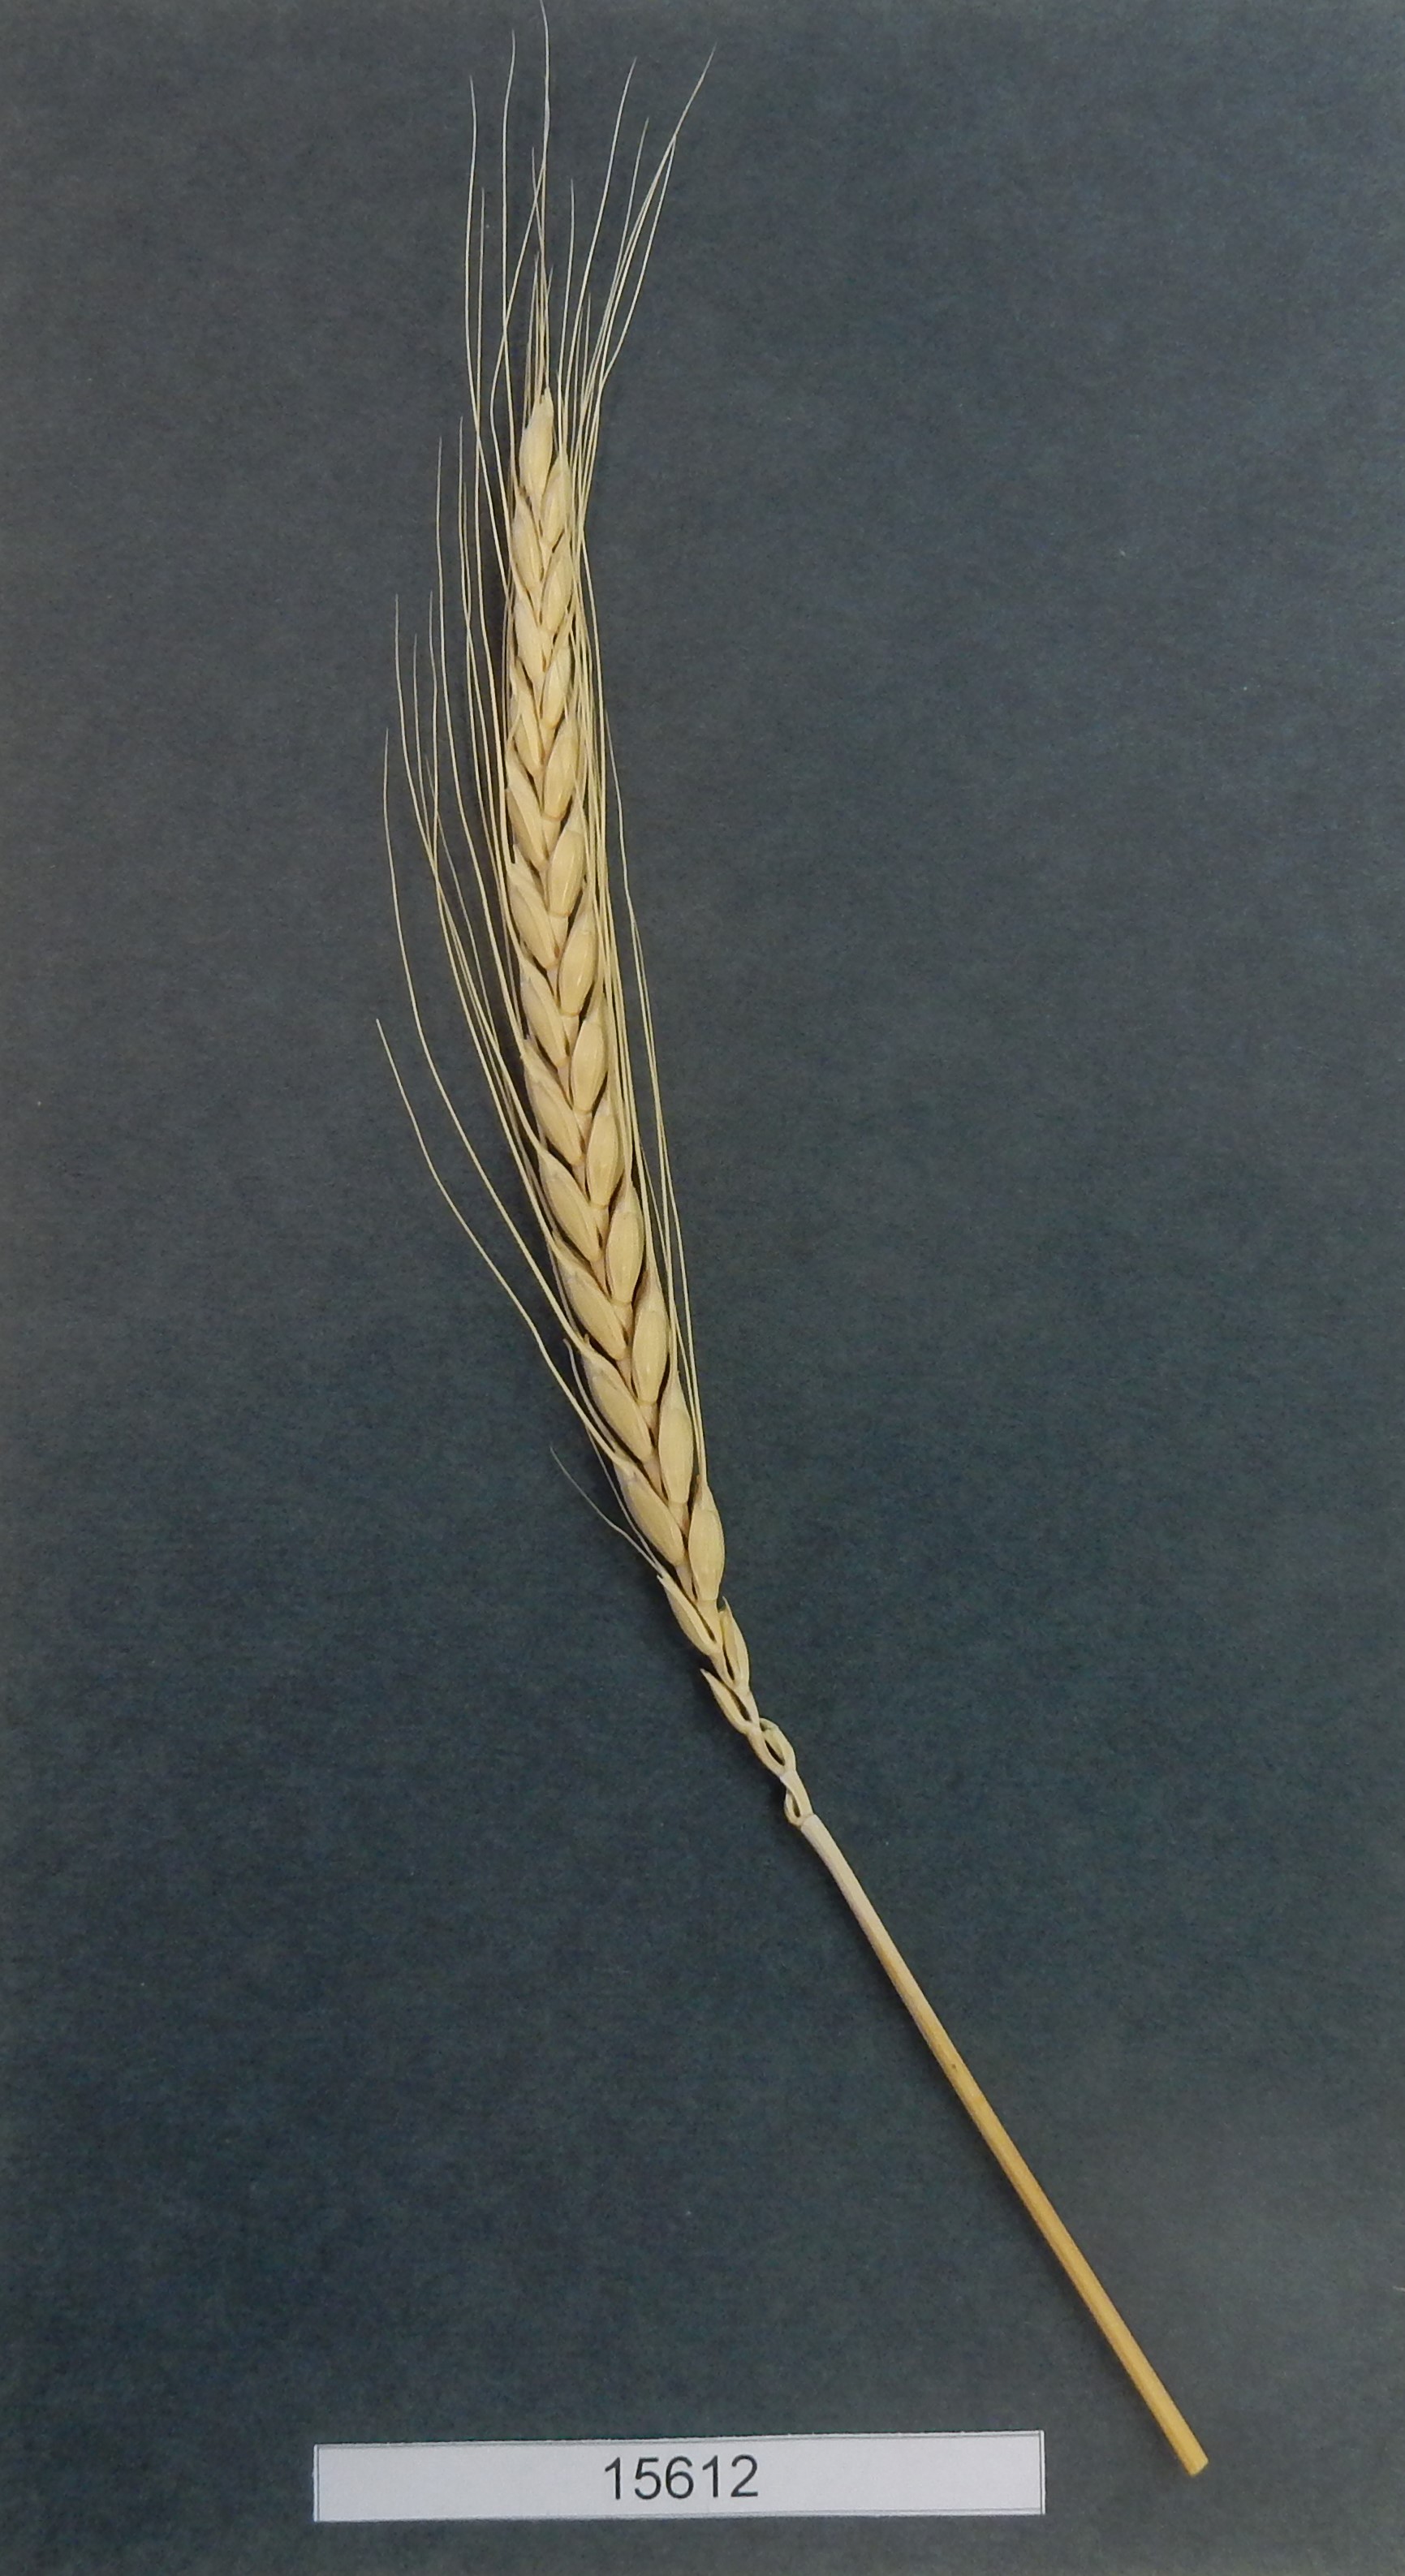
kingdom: Plantae
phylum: Tracheophyta
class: Liliopsida
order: Poales
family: Poaceae
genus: Triticum
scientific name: Triticum aestivum
